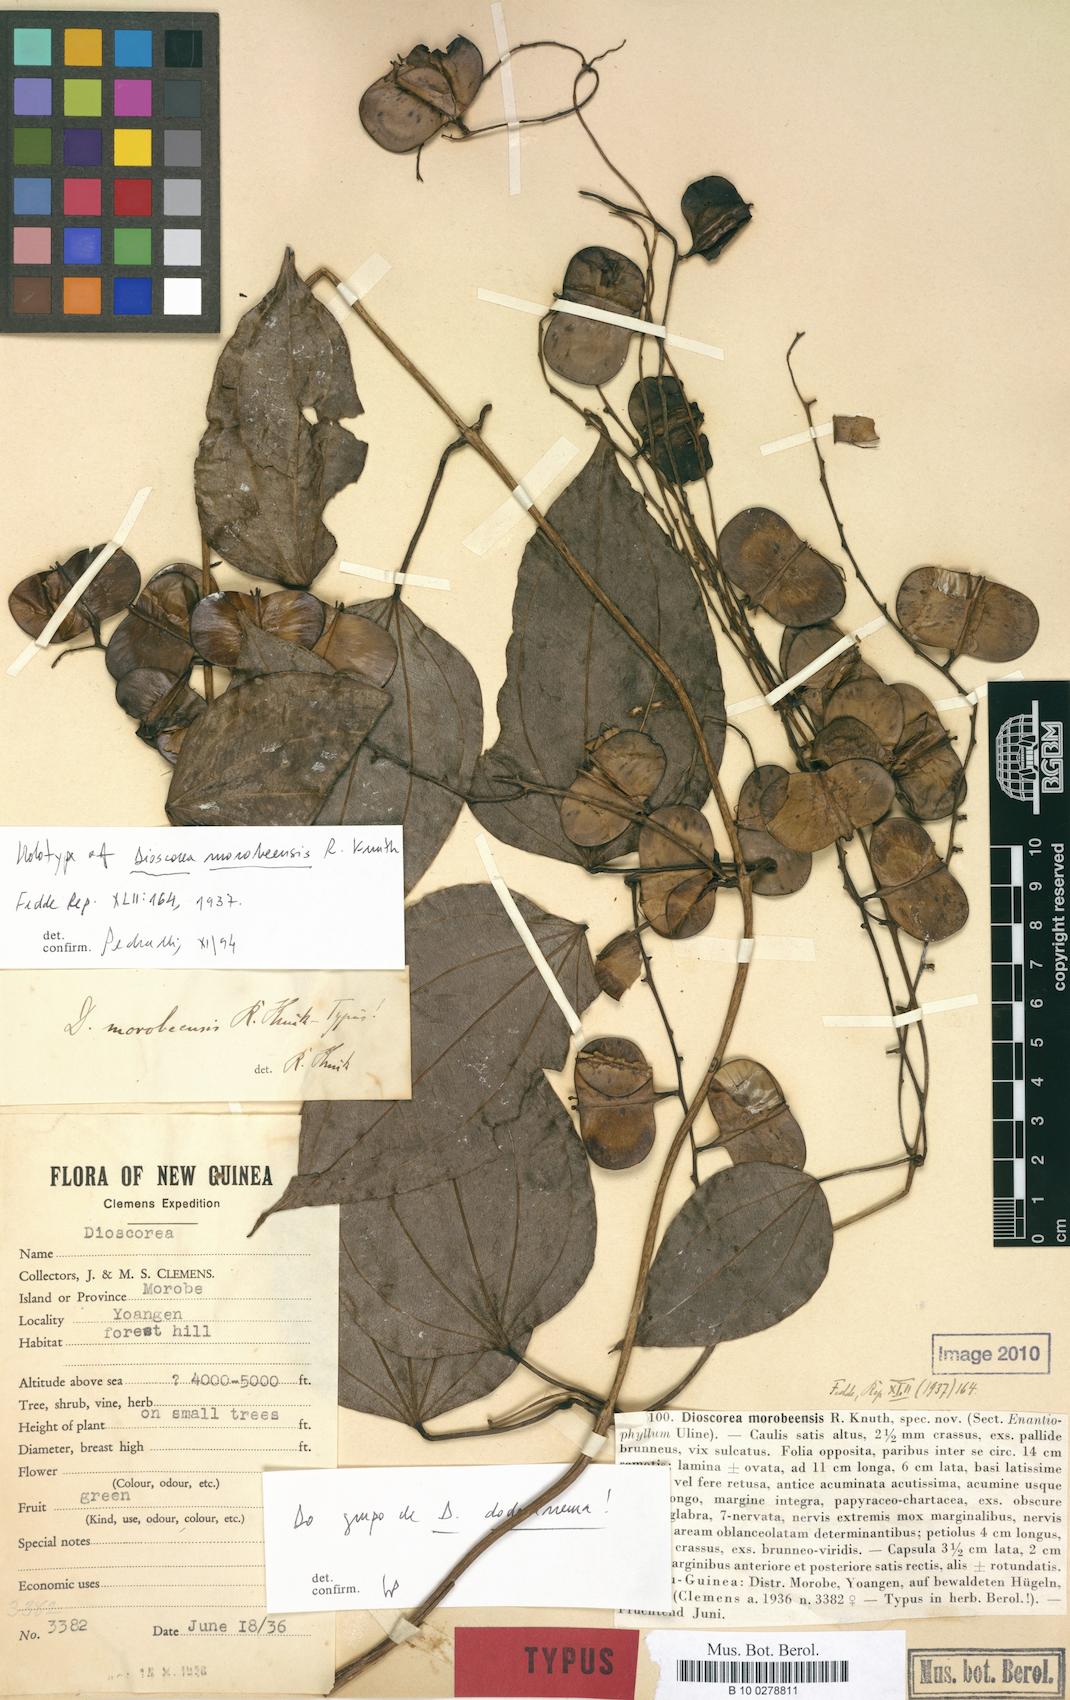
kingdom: Plantae
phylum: Tracheophyta
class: Liliopsida
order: Dioscoreales
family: Dioscoreaceae
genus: Dioscorea
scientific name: Dioscorea opaca
